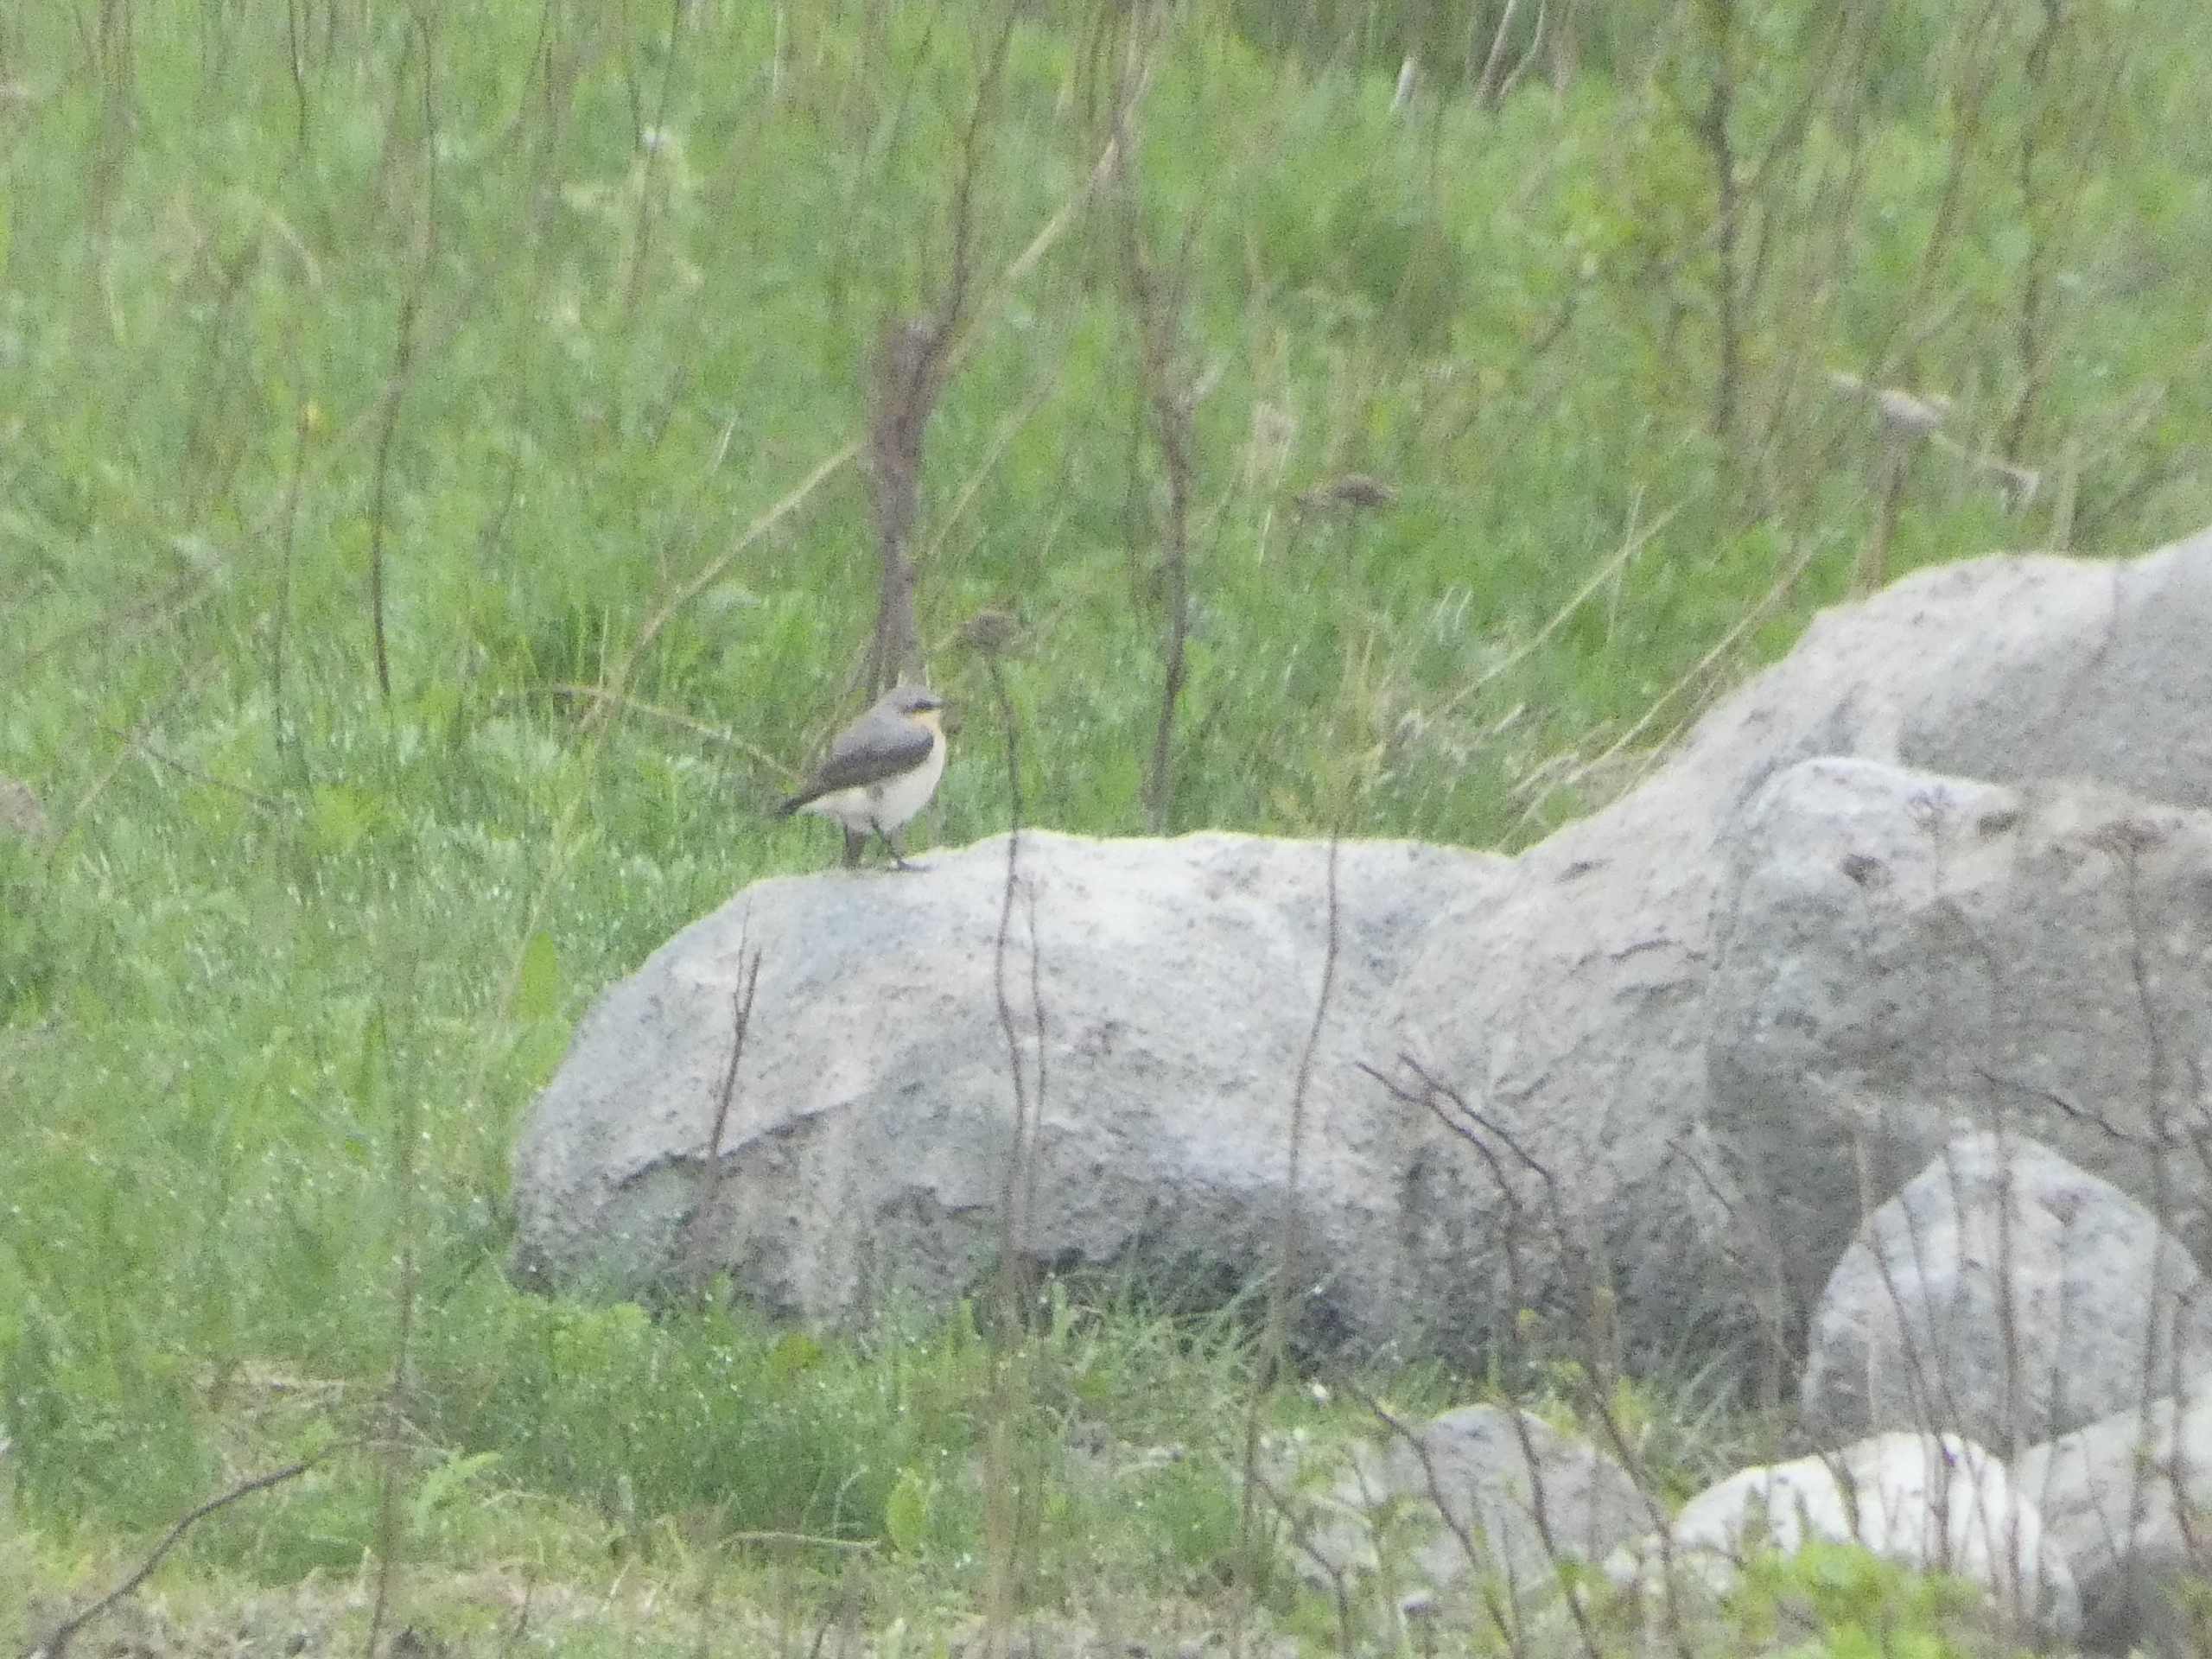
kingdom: Animalia
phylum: Chordata
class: Aves
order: Passeriformes
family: Muscicapidae
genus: Oenanthe
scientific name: Oenanthe oenanthe
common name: Stenpikker
